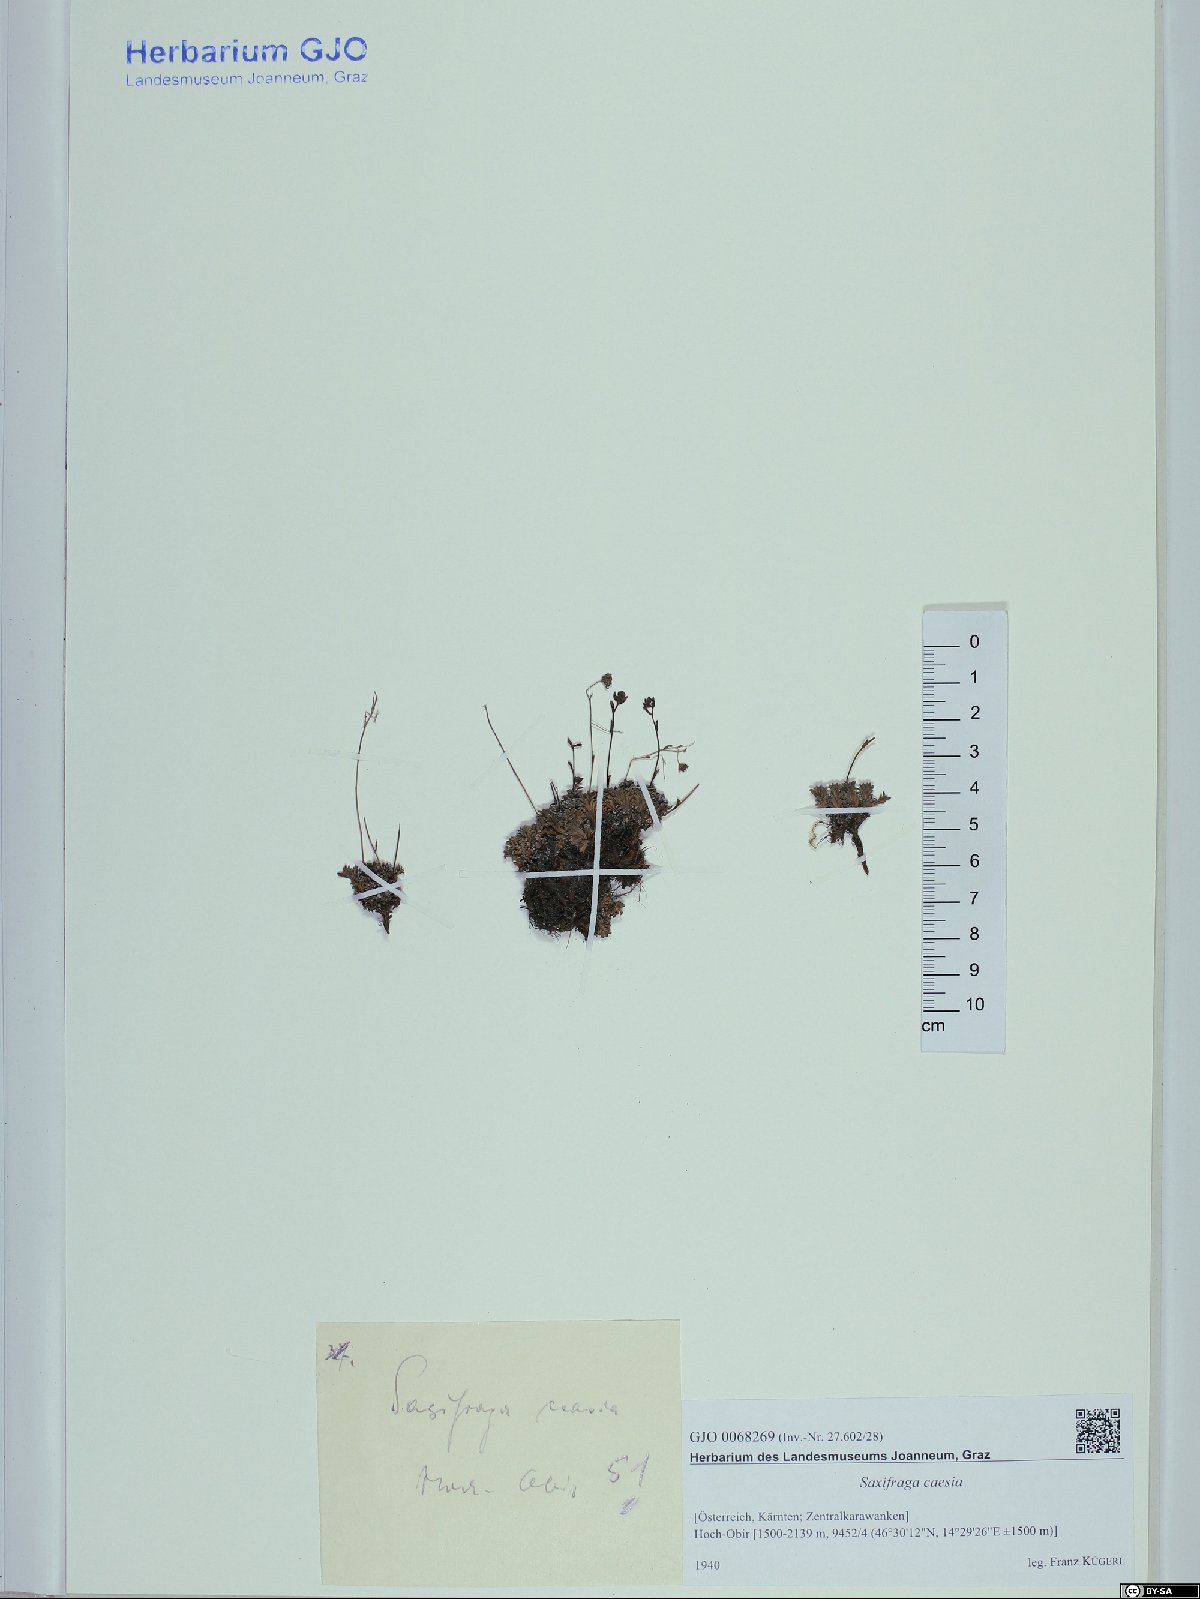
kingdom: Plantae
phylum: Tracheophyta
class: Magnoliopsida
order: Saxifragales
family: Saxifragaceae
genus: Saxifraga
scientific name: Saxifraga caesia
